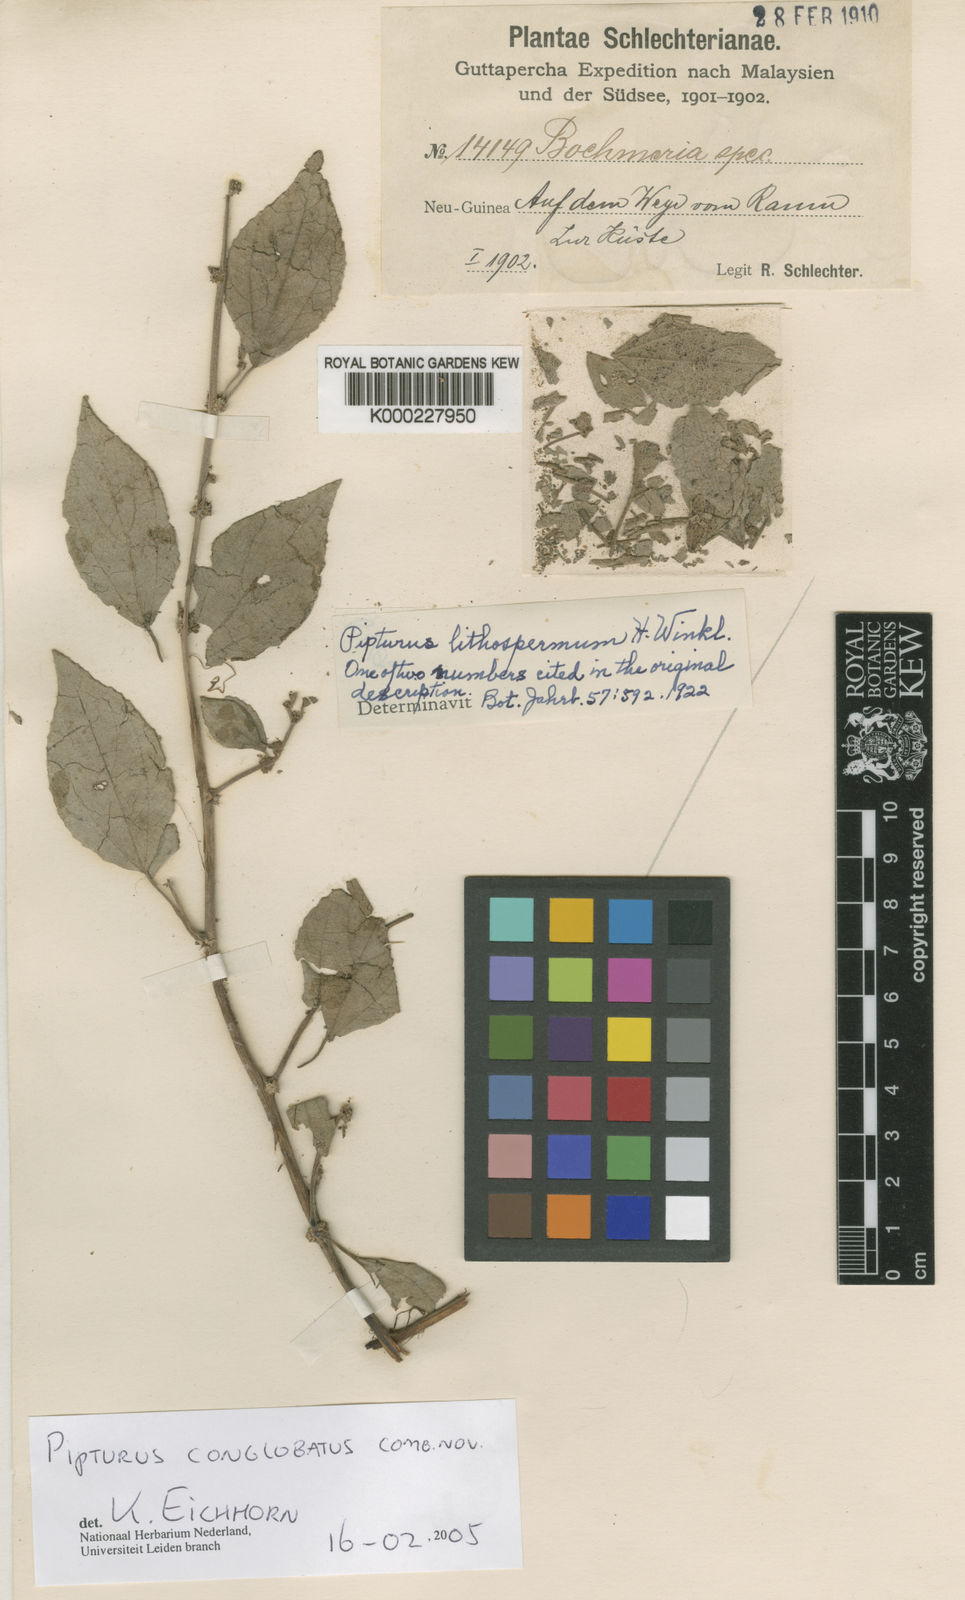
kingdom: Plantae
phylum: Tracheophyta
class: Magnoliopsida
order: Rosales
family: Urticaceae
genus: Pipturus
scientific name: Pipturus
